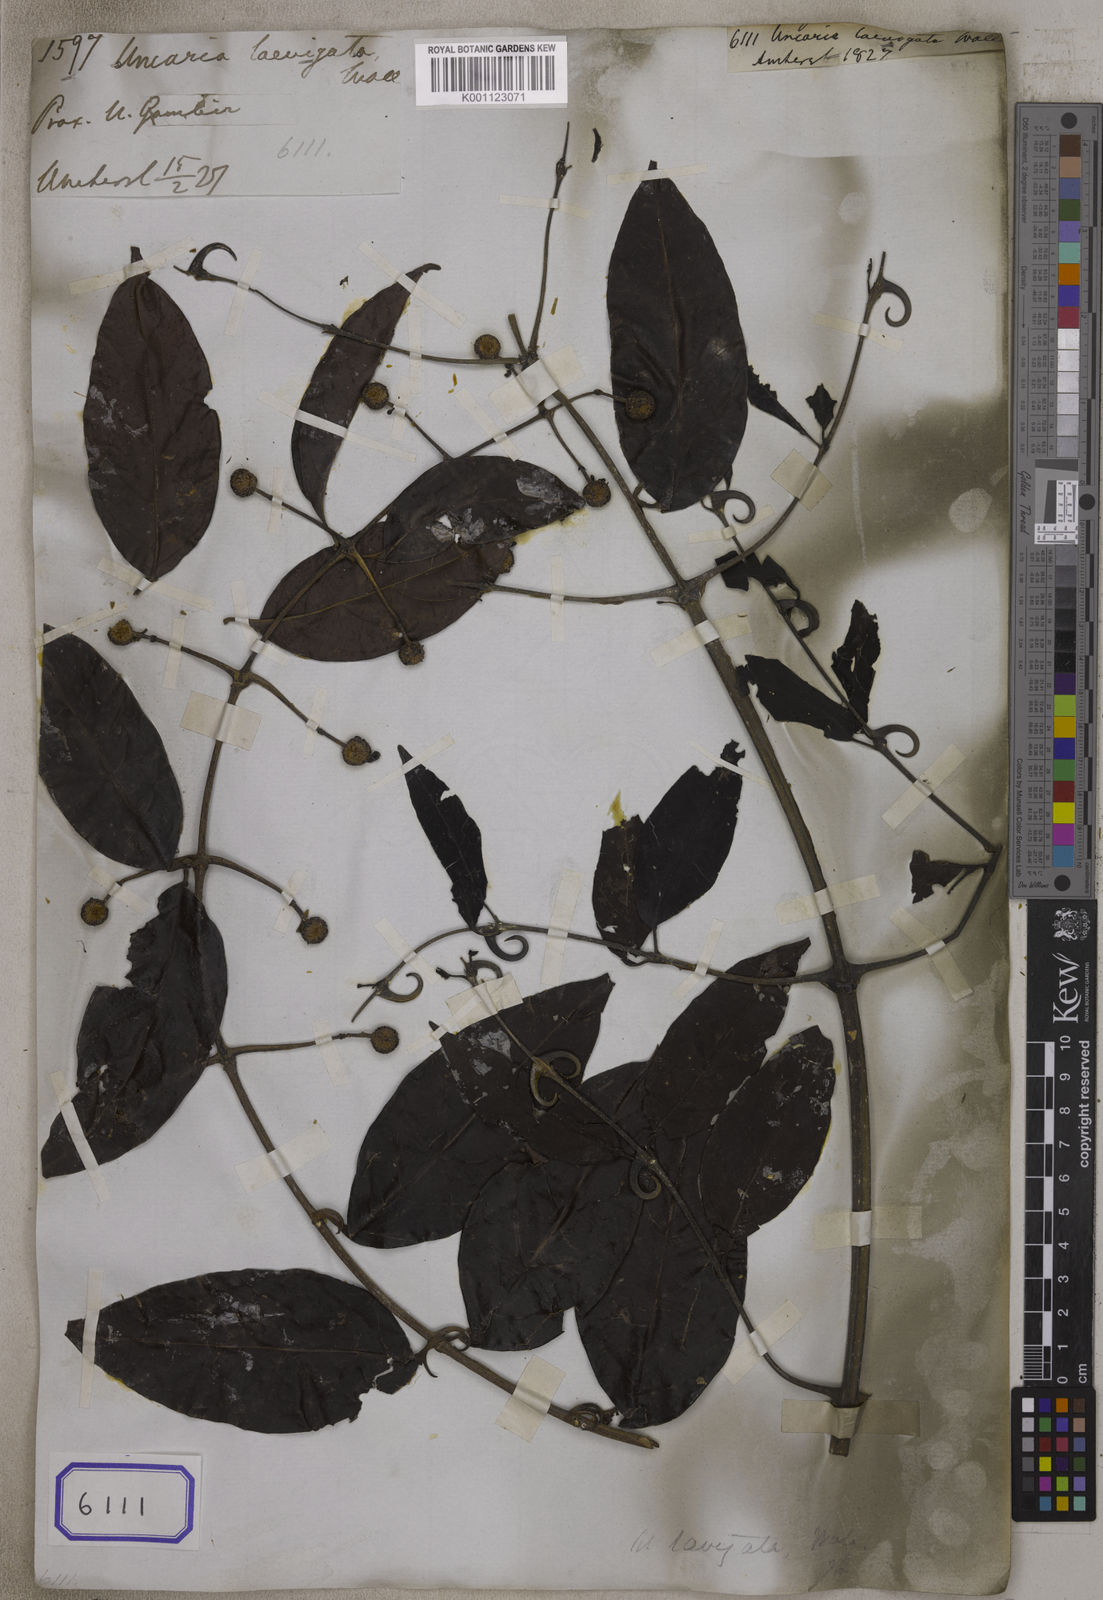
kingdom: Plantae
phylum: Tracheophyta
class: Magnoliopsida
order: Gentianales
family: Rubiaceae
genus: Uncaria
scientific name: Uncaria
